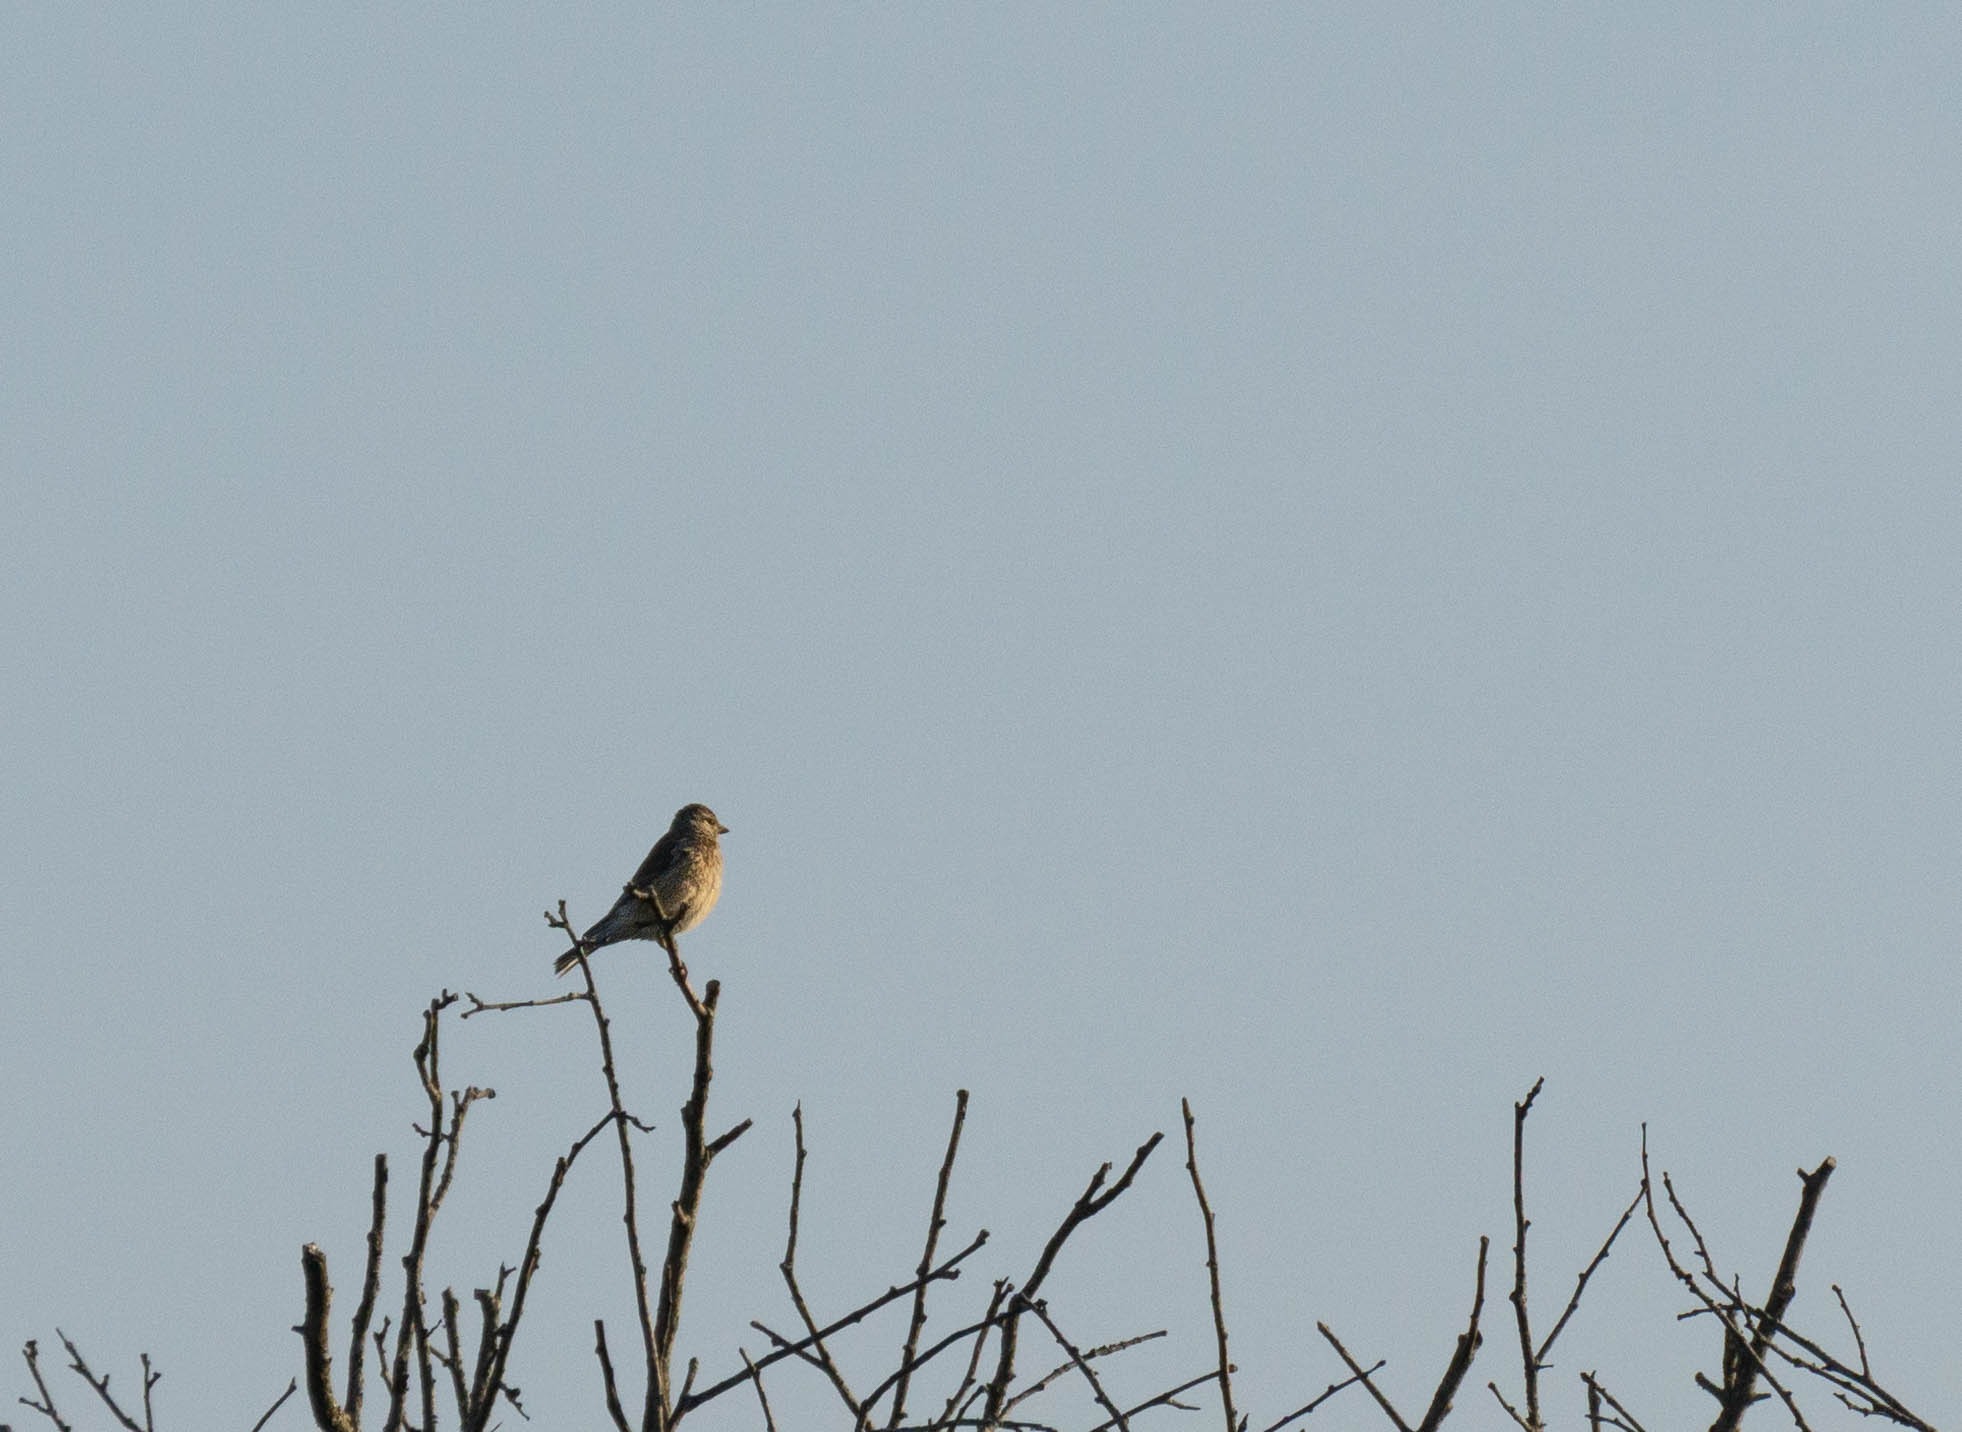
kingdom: Animalia
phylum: Chordata
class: Aves
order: Passeriformes
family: Fringillidae
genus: Linaria
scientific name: Linaria cannabina
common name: Tornirisk
